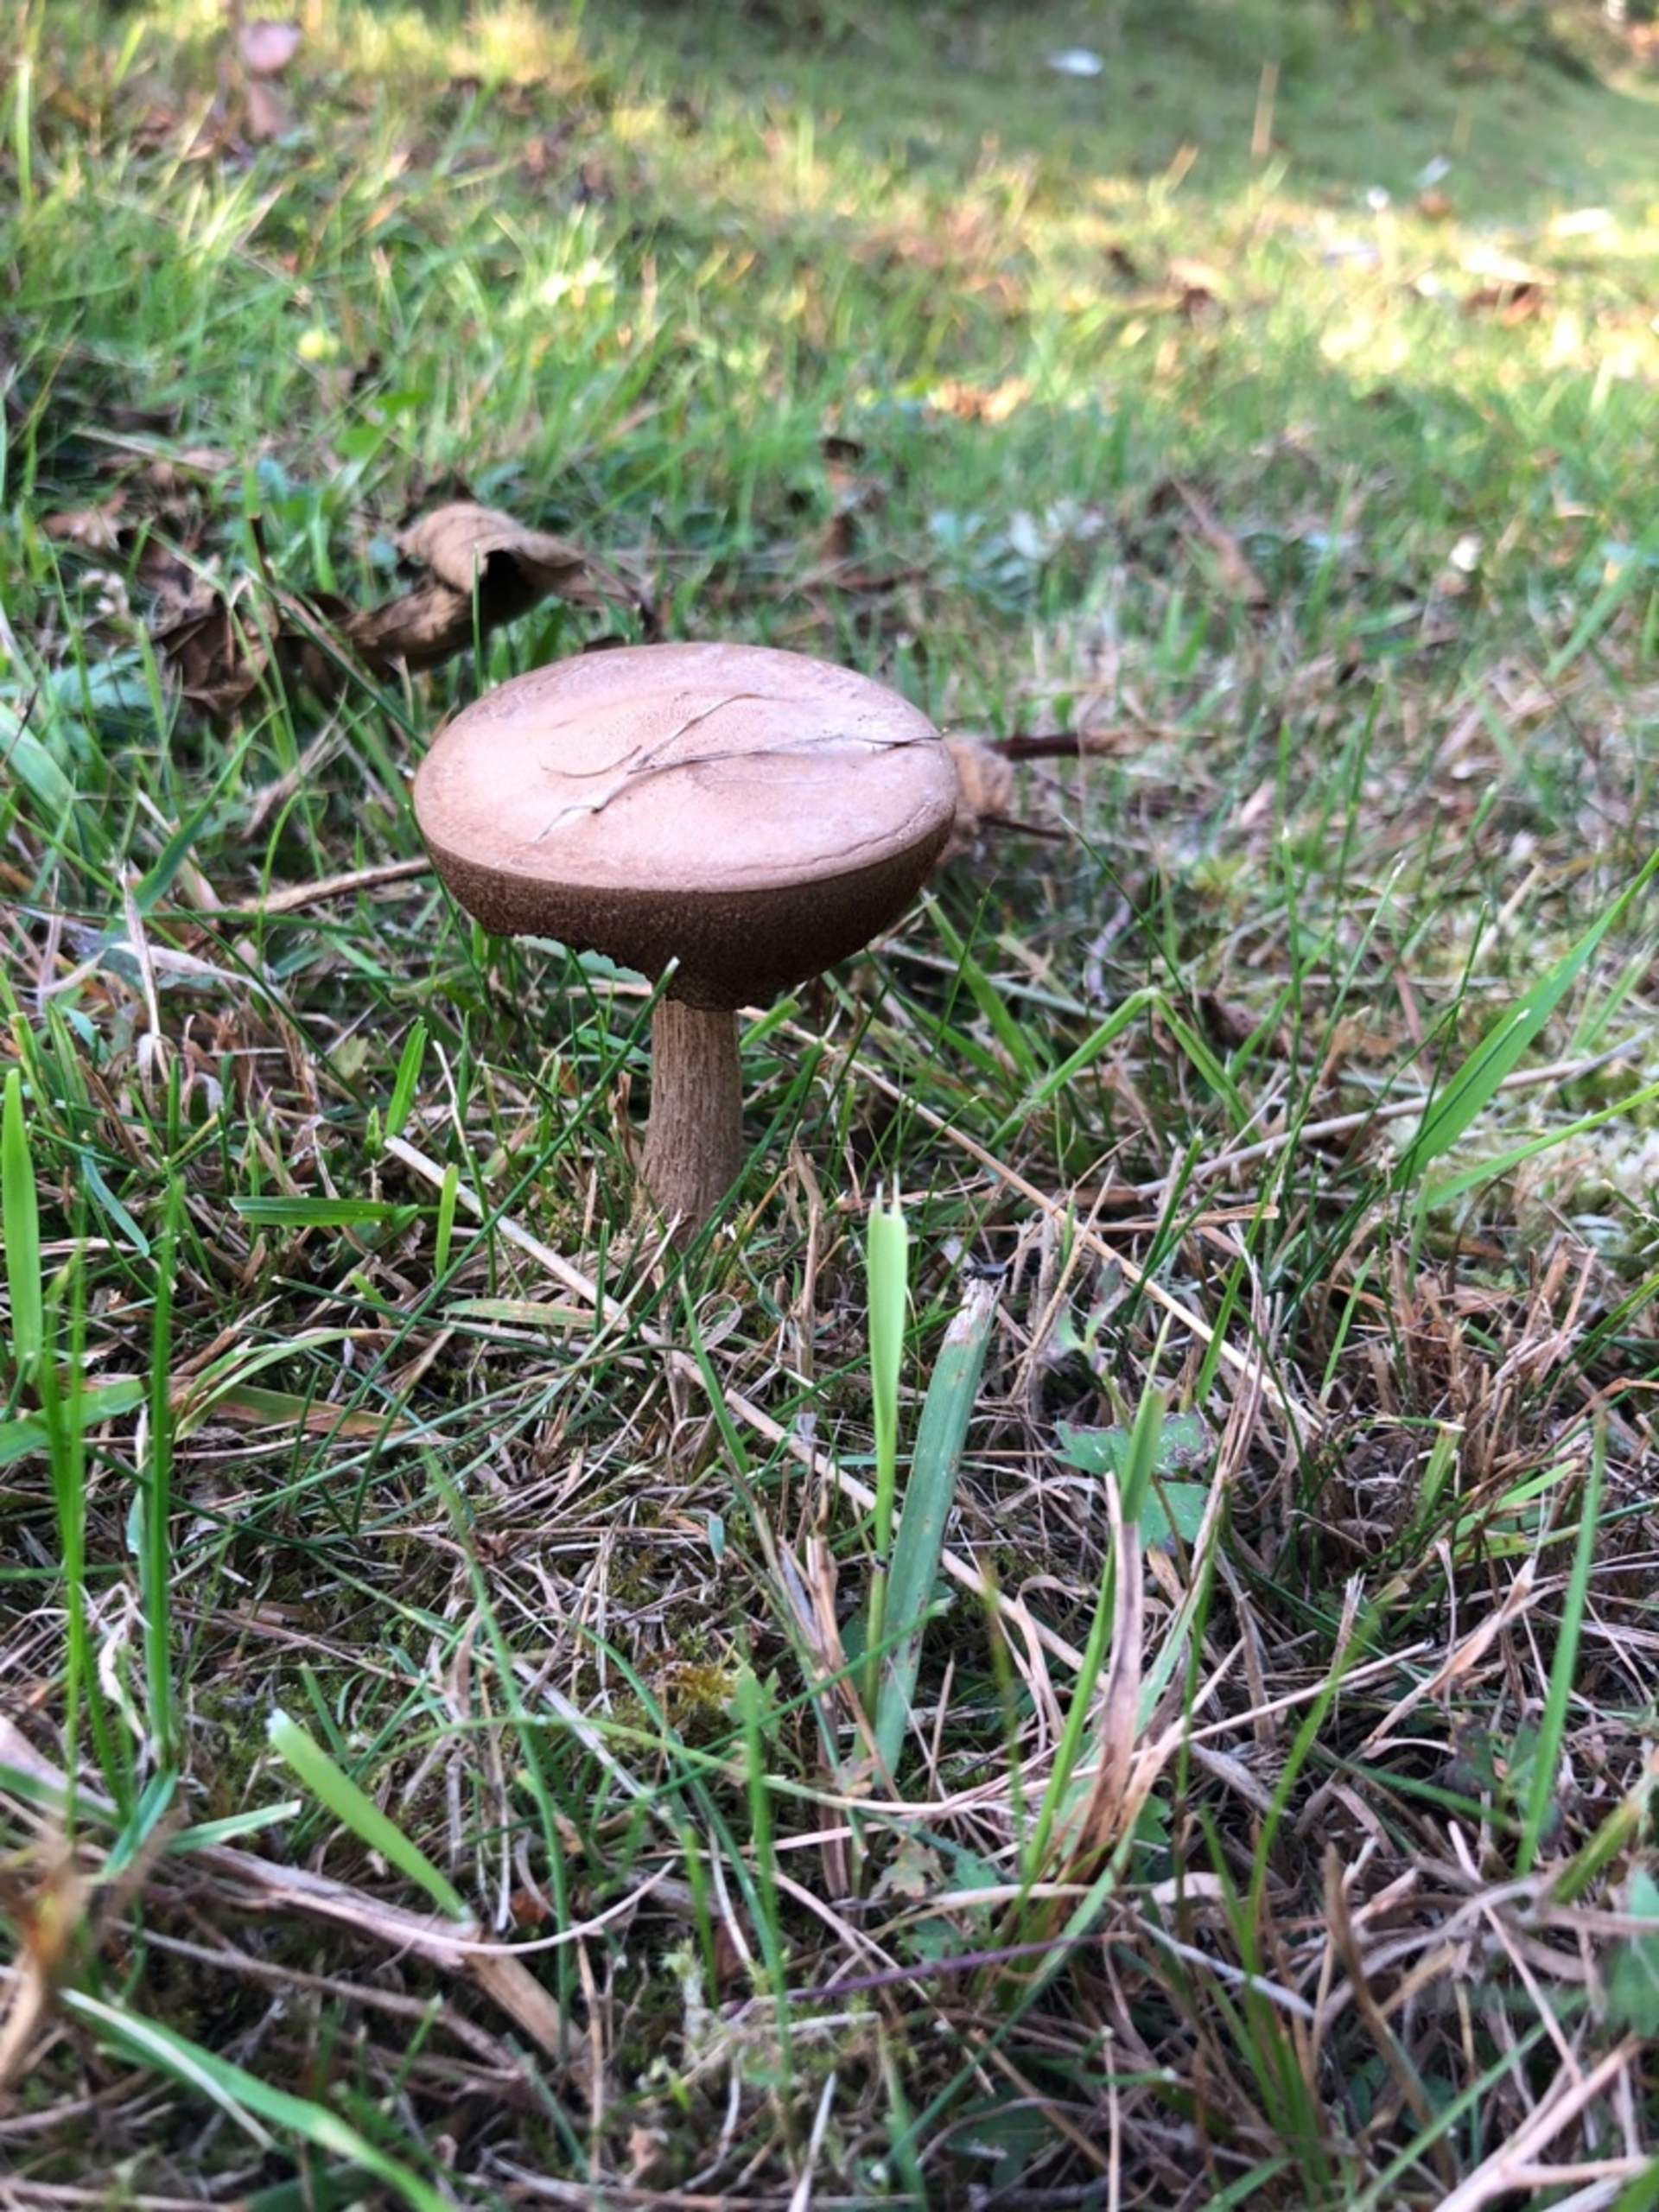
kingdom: Fungi
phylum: Basidiomycota
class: Agaricomycetes
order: Boletales
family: Boletaceae
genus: Leccinum
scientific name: Leccinum
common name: Skælrørhat
